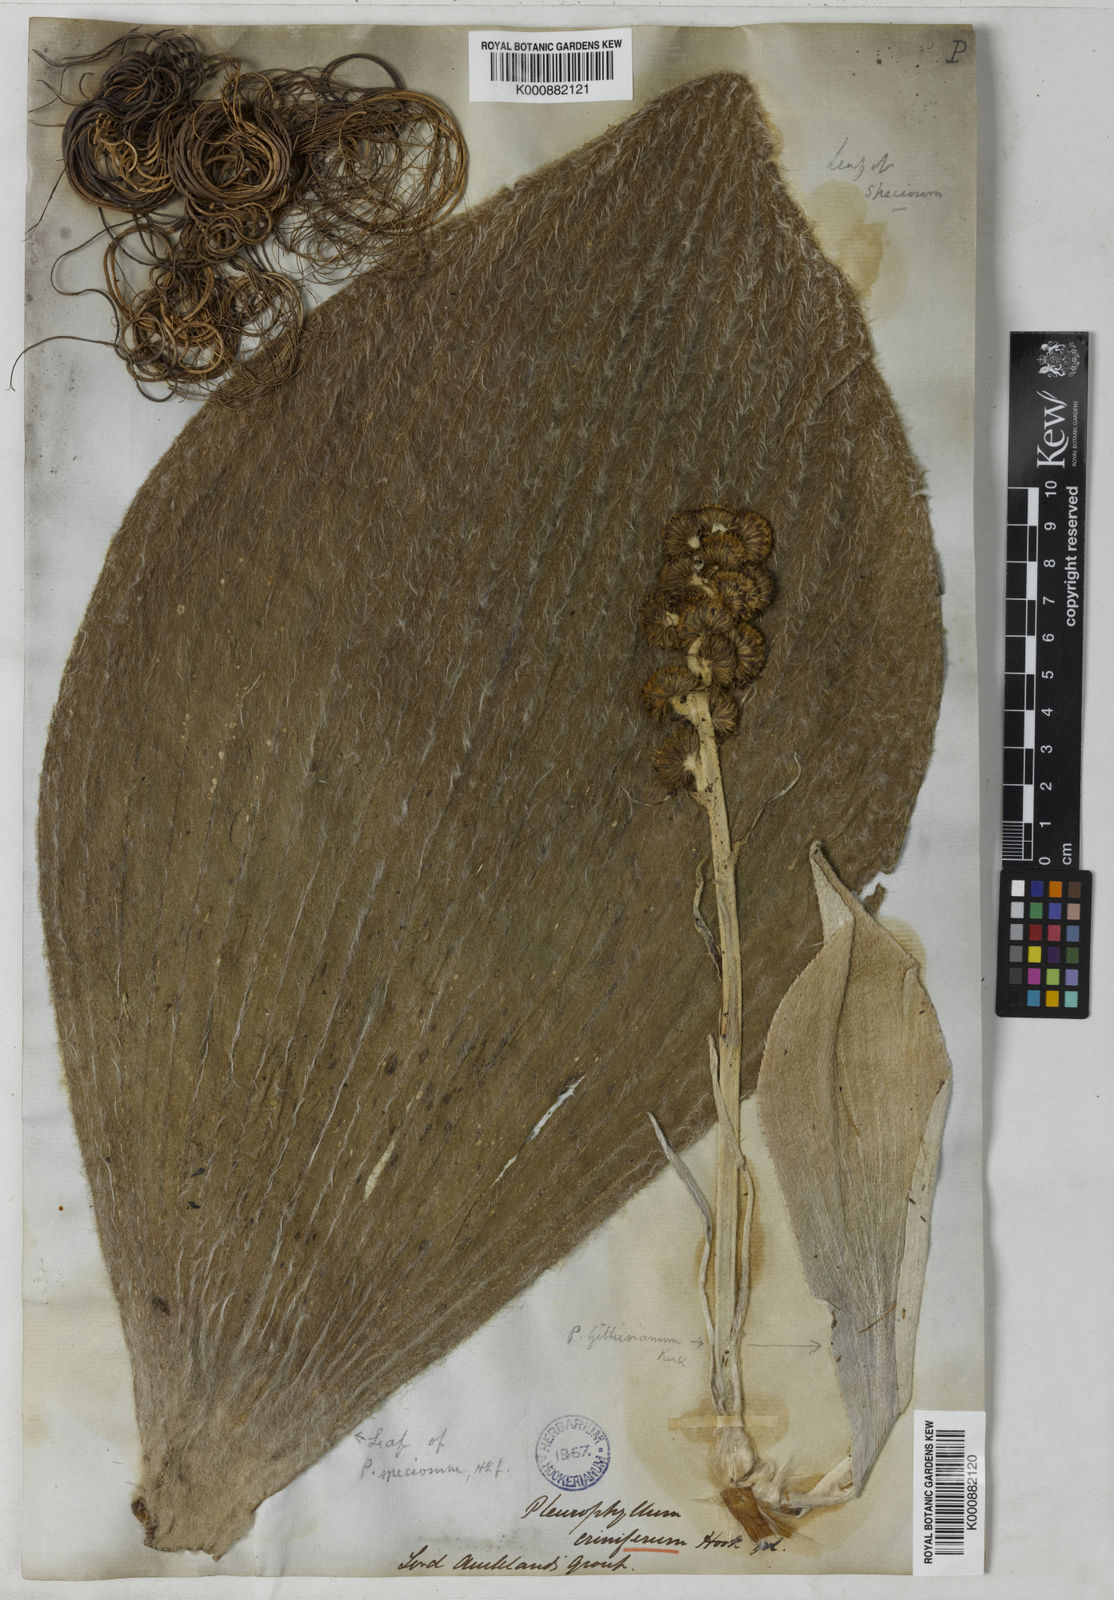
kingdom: Plantae
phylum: Tracheophyta
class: Magnoliopsida
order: Asterales
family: Asteraceae
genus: Pleurophyllum
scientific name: Pleurophyllum speciosum
